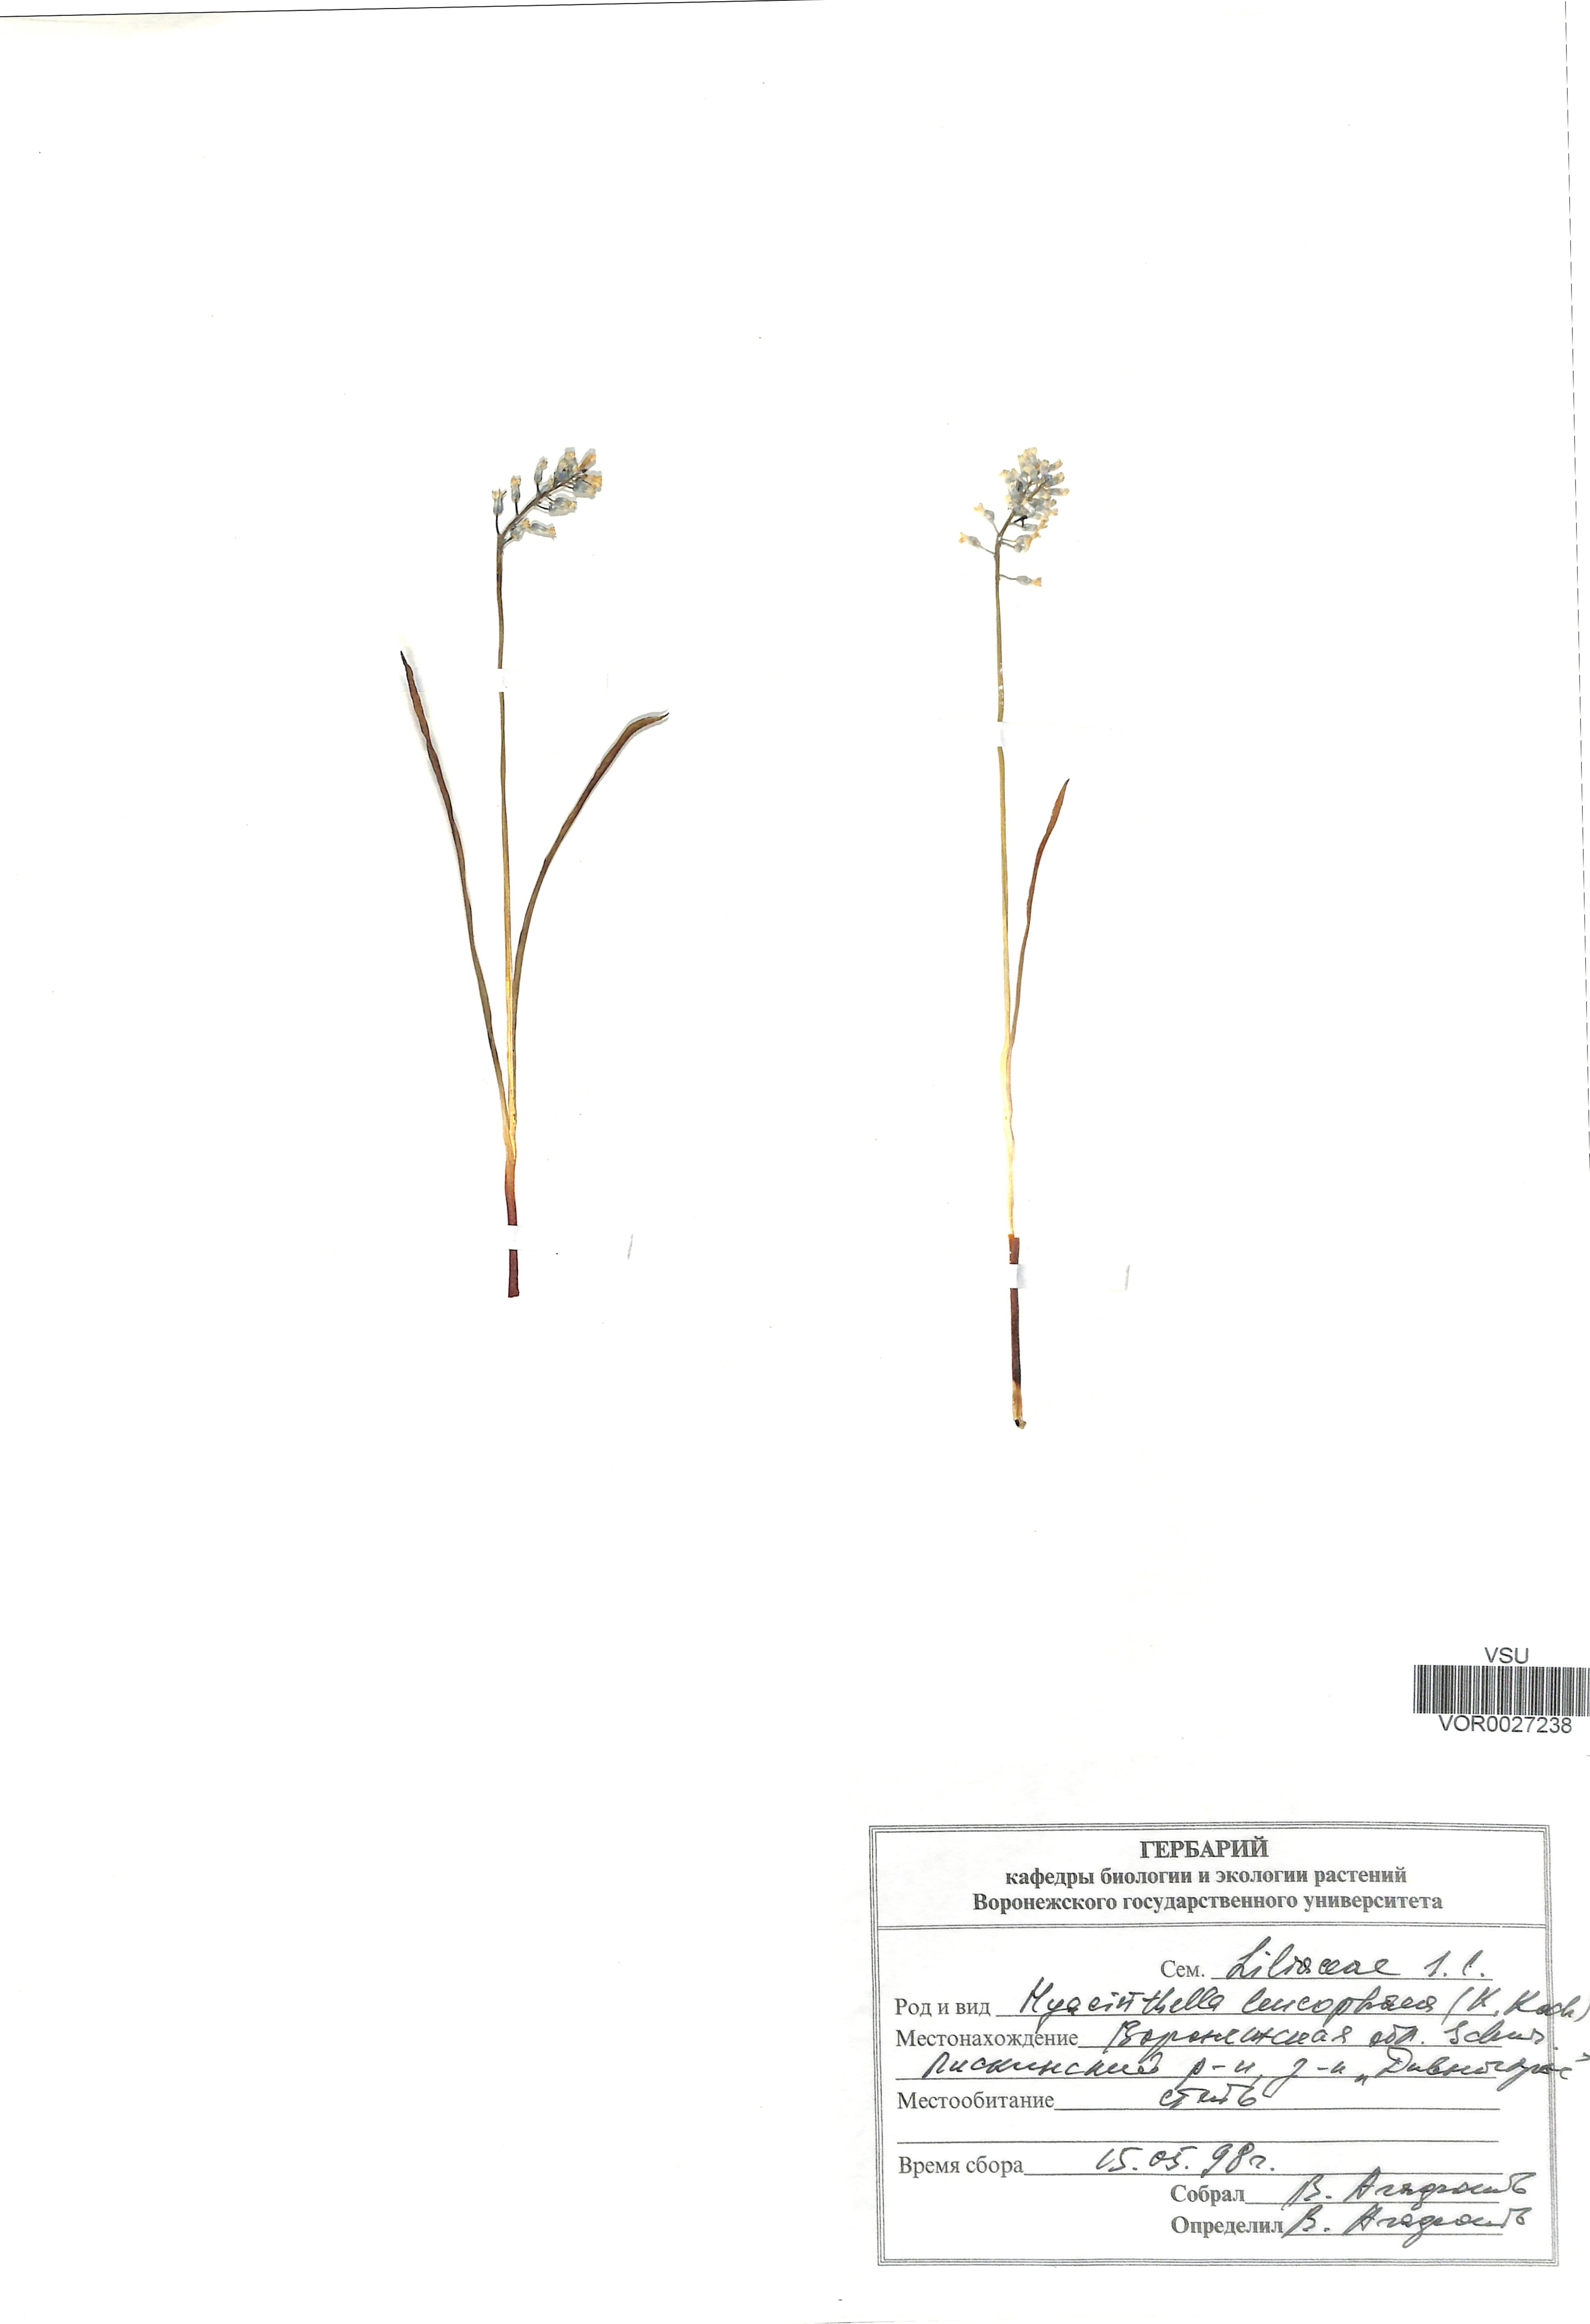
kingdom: Plantae
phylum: Tracheophyta
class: Liliopsida
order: Asparagales
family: Asparagaceae
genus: Hyacinthella
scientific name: Hyacinthella leucophaea
